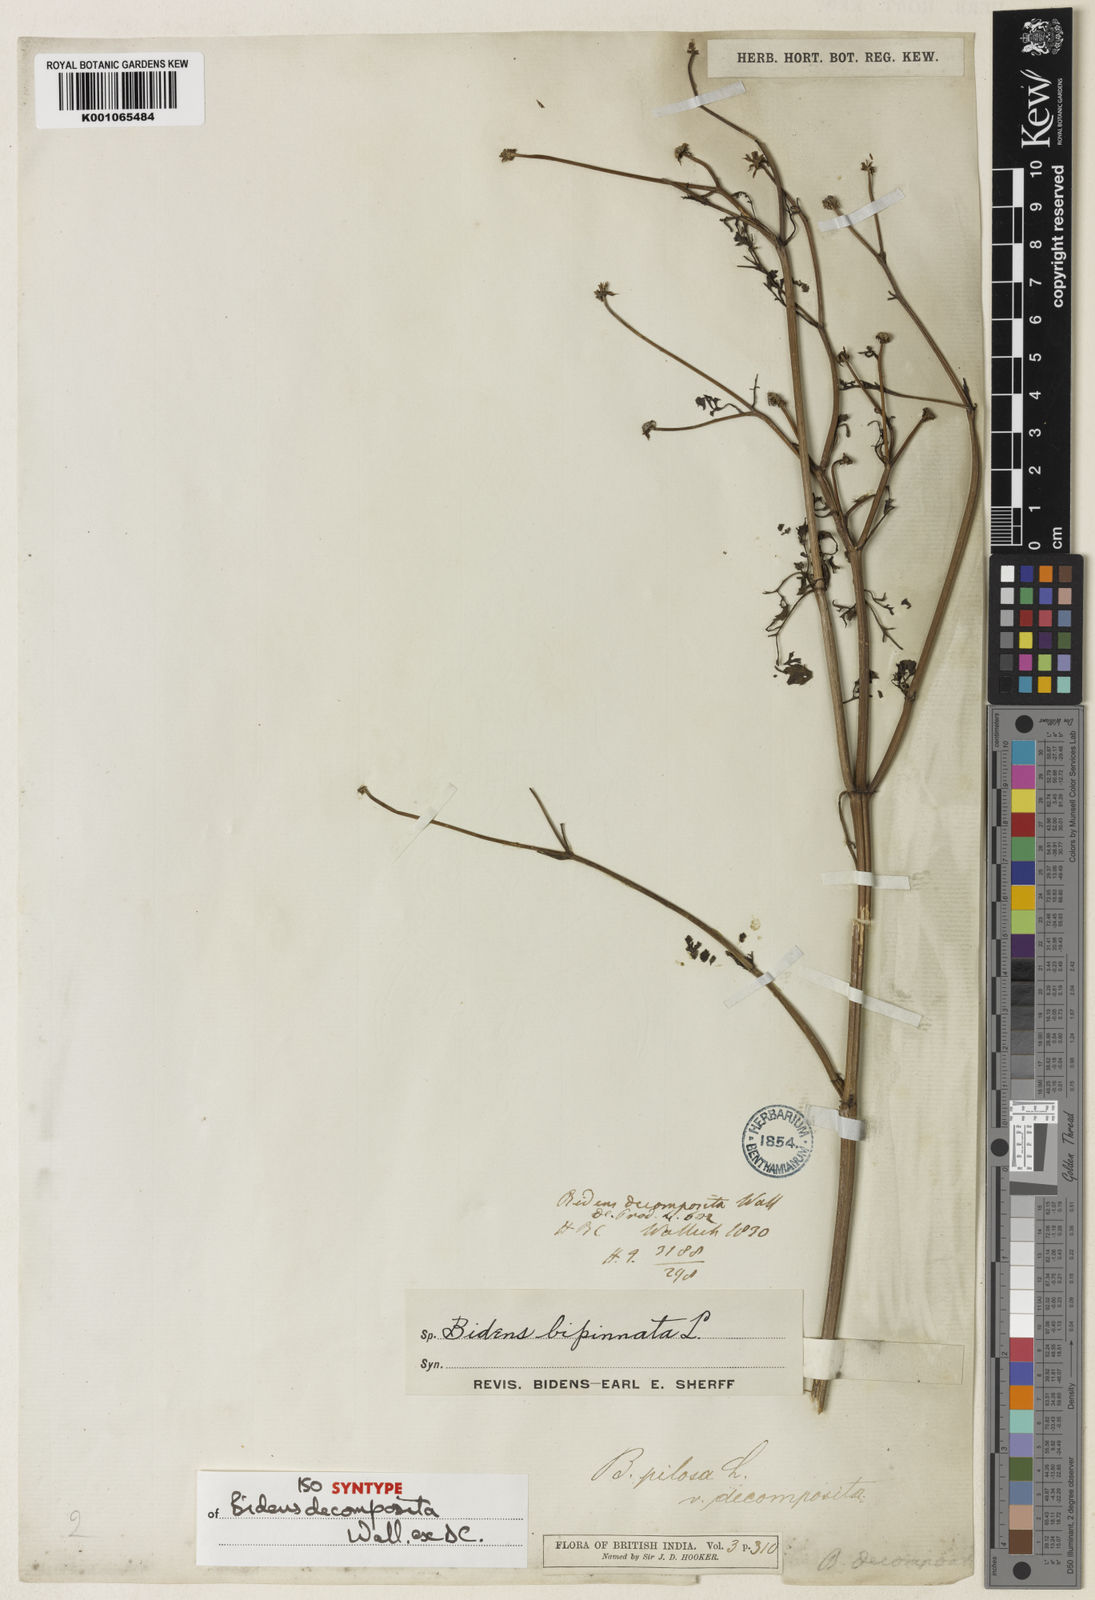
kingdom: Plantae
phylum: Tracheophyta
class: Magnoliopsida
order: Asterales
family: Asteraceae
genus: Bidens
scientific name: Bidens bipinnata
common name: Spanish-needles
